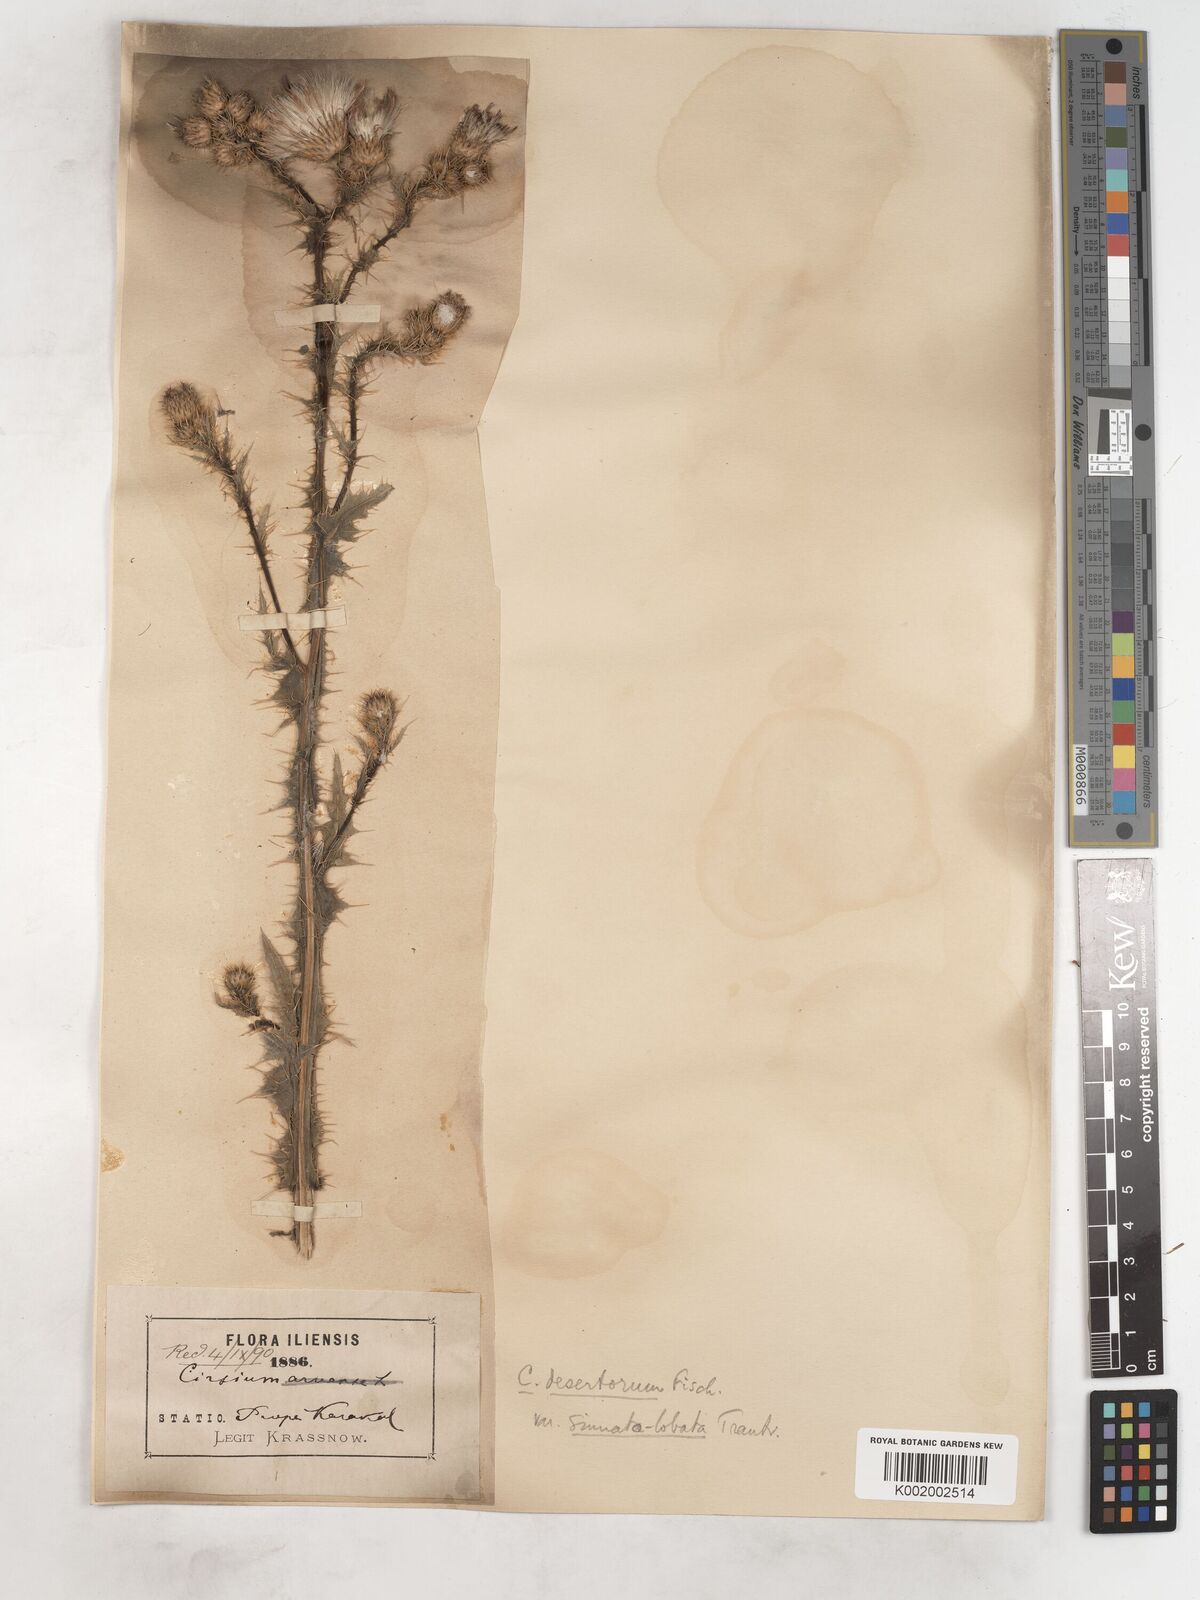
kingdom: Plantae
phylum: Tracheophyta
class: Magnoliopsida
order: Asterales
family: Asteraceae
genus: Cirsium
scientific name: Cirsium alatum
